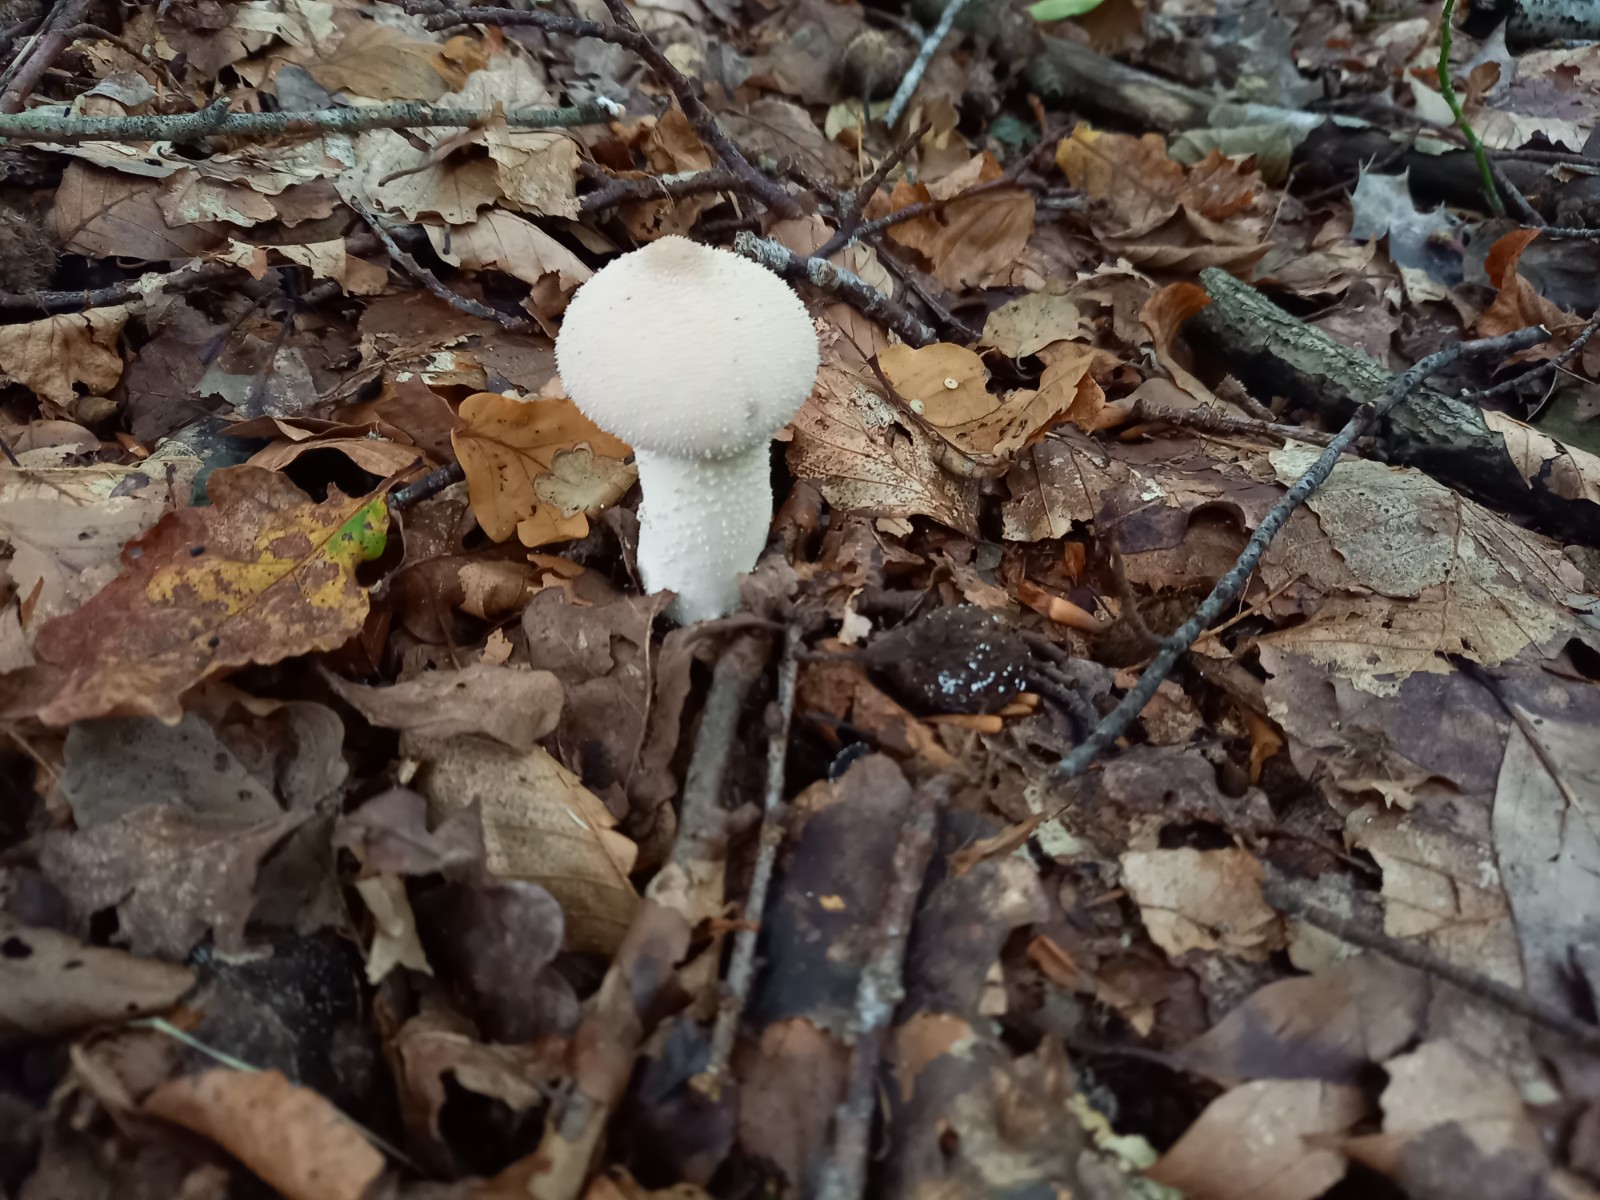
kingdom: Fungi
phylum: Basidiomycota
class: Agaricomycetes
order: Agaricales
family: Agaricaceae
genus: Lycoperdon
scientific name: Lycoperdon
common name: støvbold
